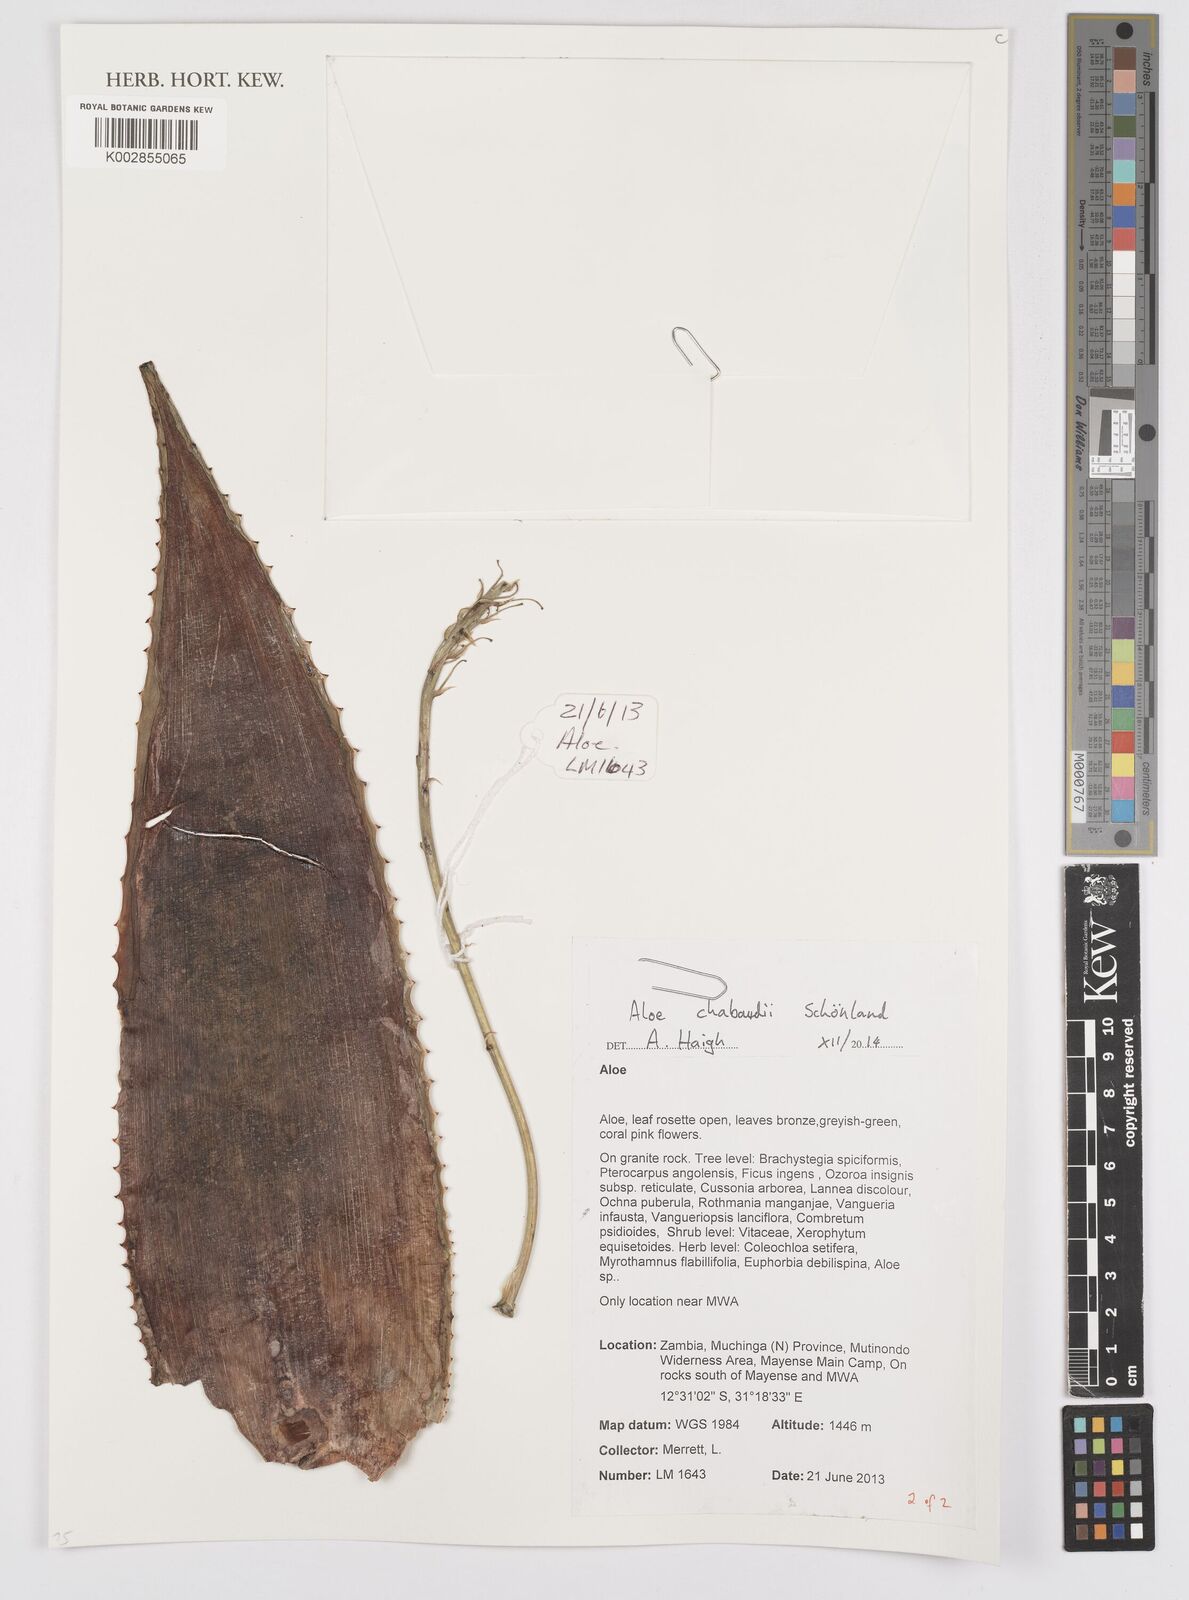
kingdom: Plantae
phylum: Tracheophyta
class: Liliopsida
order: Asparagales
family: Asphodelaceae
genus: Aloe
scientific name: Aloe chabaudii
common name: Chabaud's aloe
